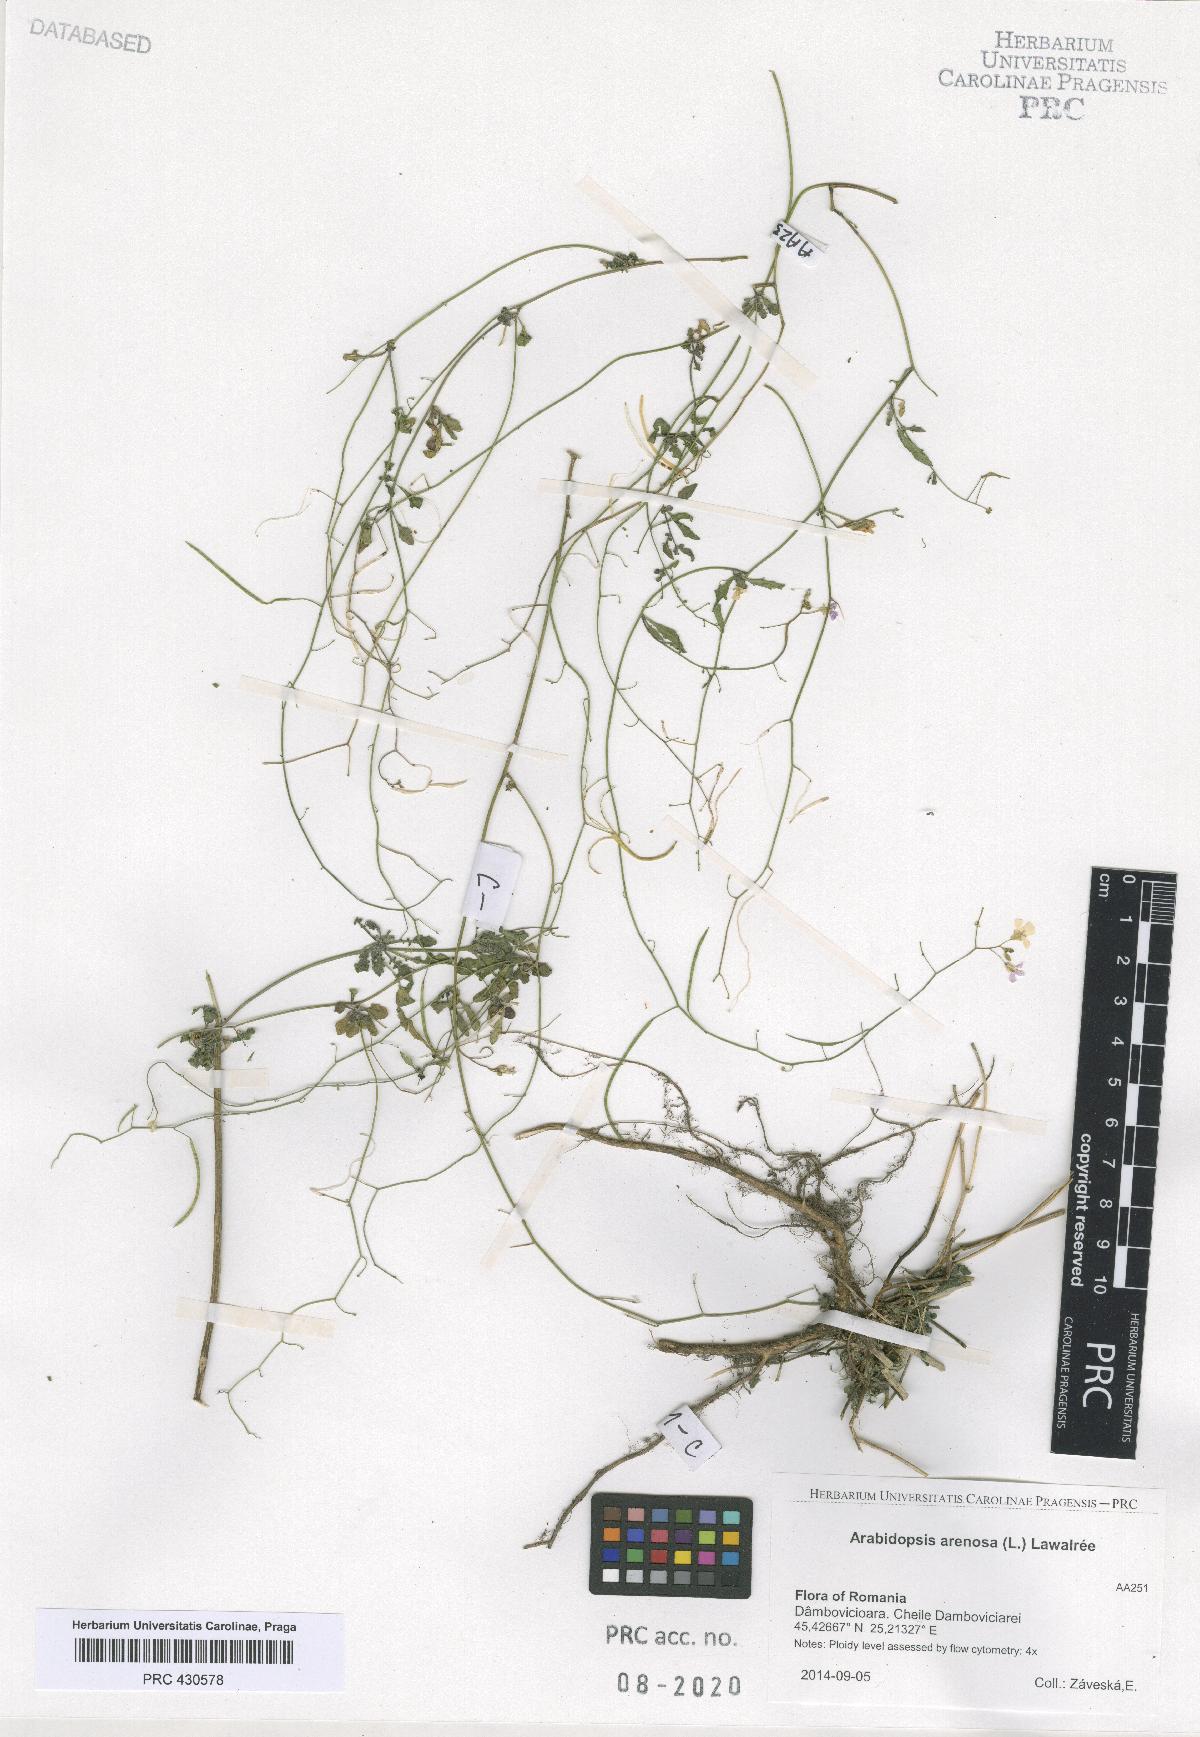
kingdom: Plantae
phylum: Tracheophyta
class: Magnoliopsida
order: Brassicales
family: Brassicaceae
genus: Arabidopsis
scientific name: Arabidopsis arenosa
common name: Sand rock-cress
